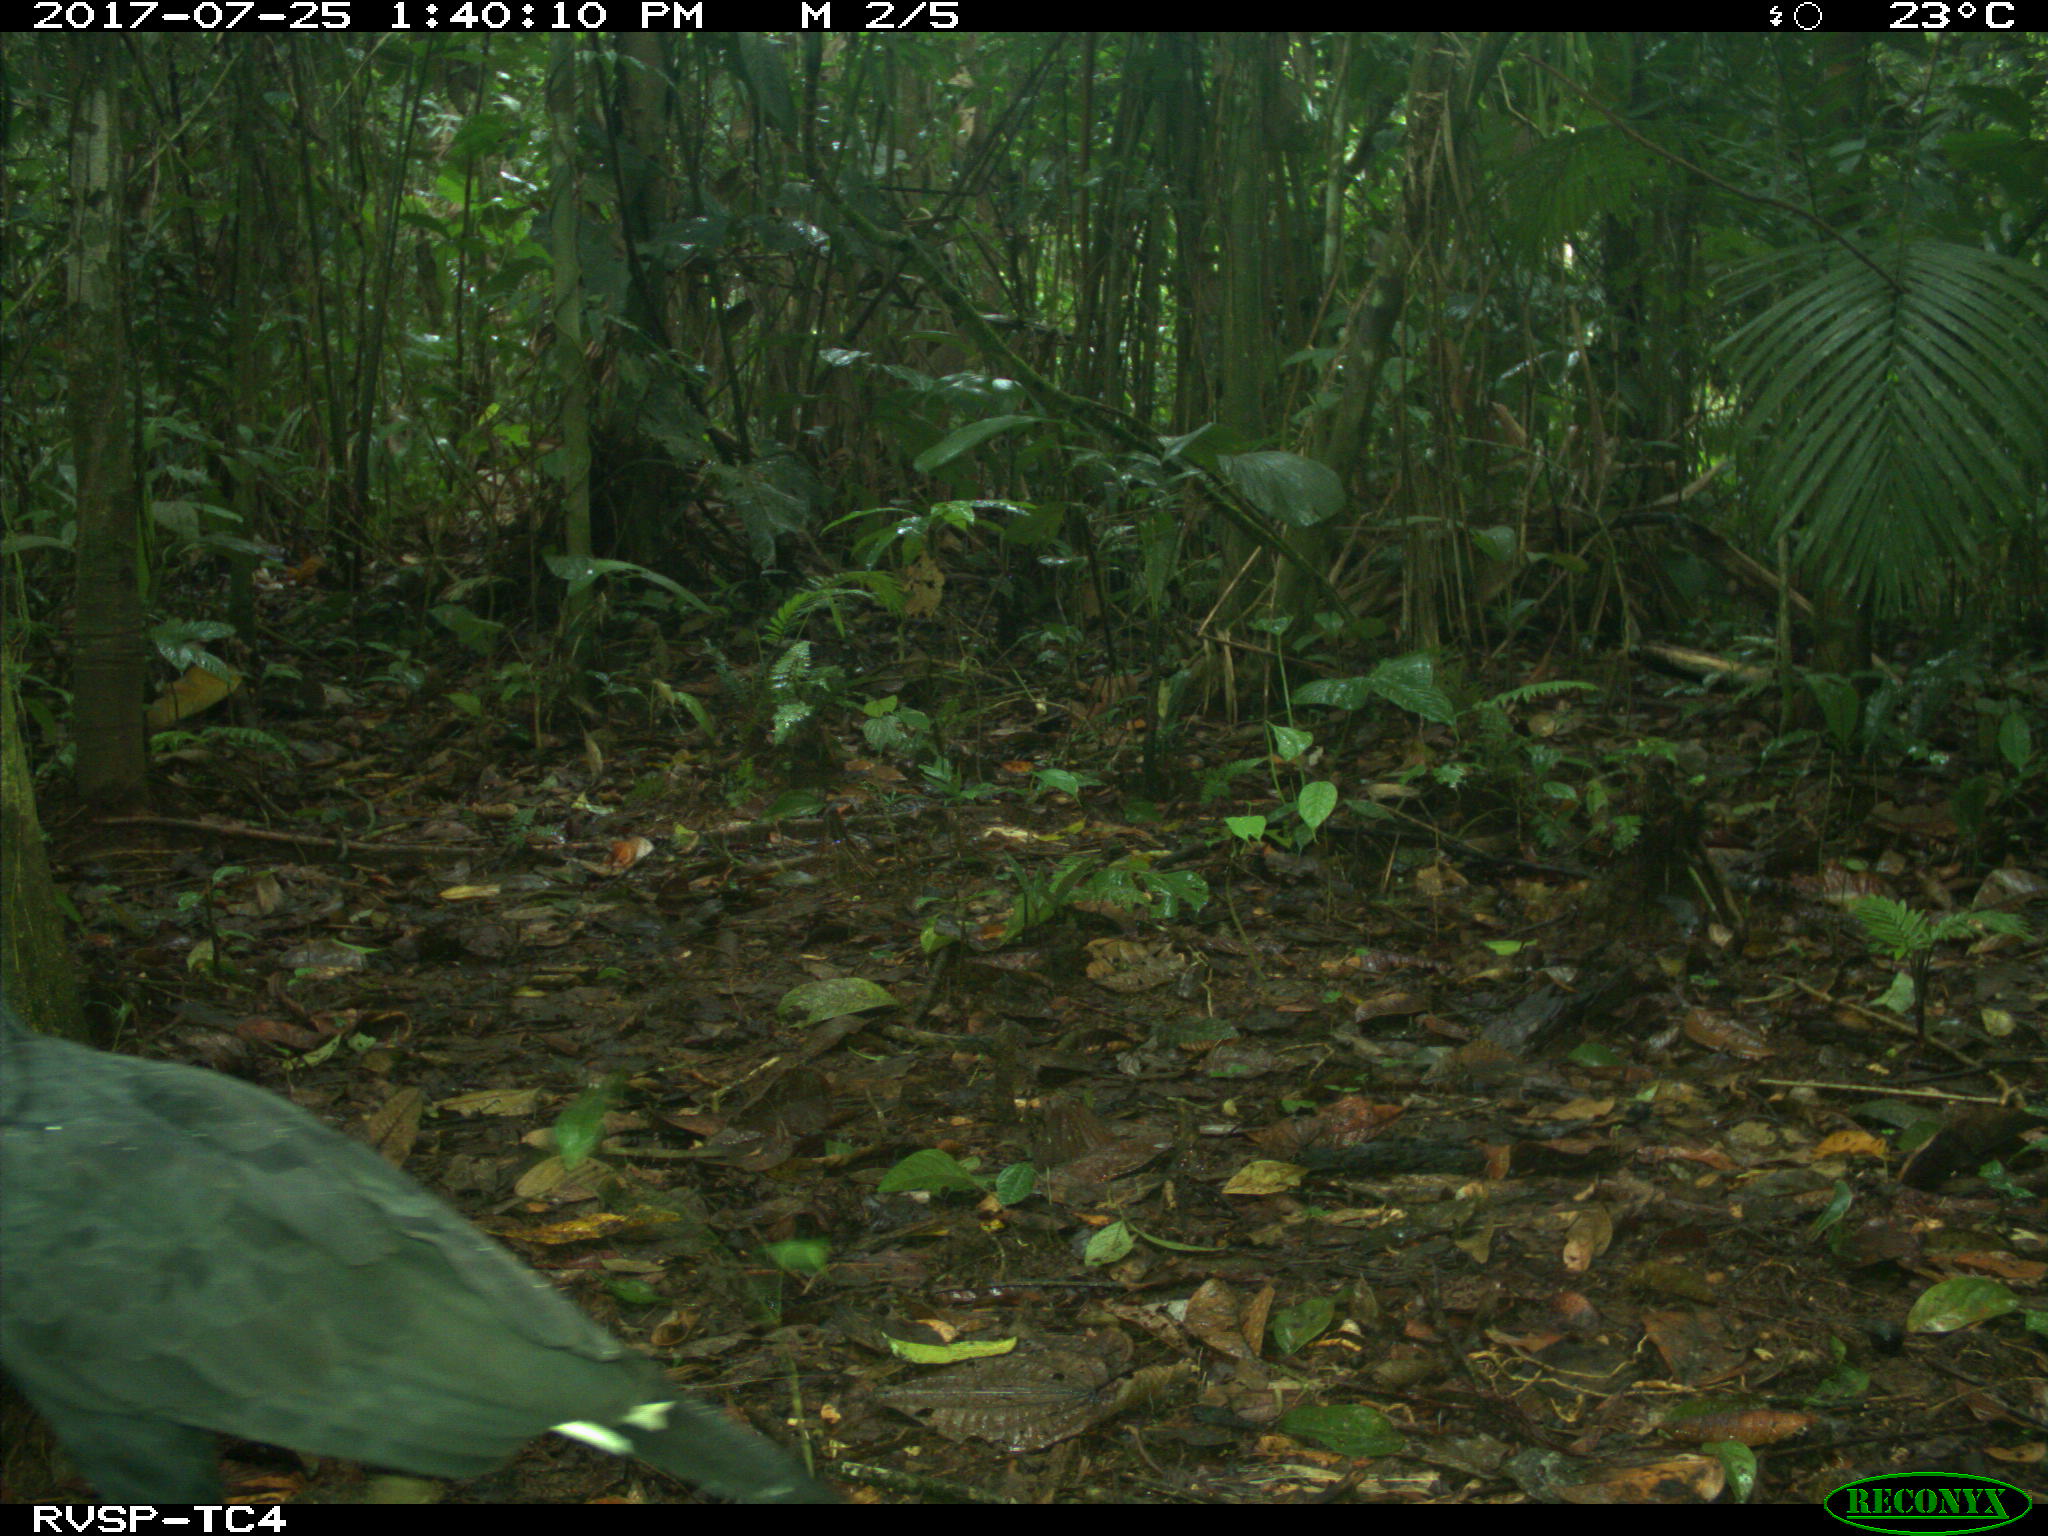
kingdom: Animalia
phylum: Chordata
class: Aves
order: Accipitriformes
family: Accipitridae
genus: Buteogallus
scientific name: Buteogallus urubitinga
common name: Great black hawk
